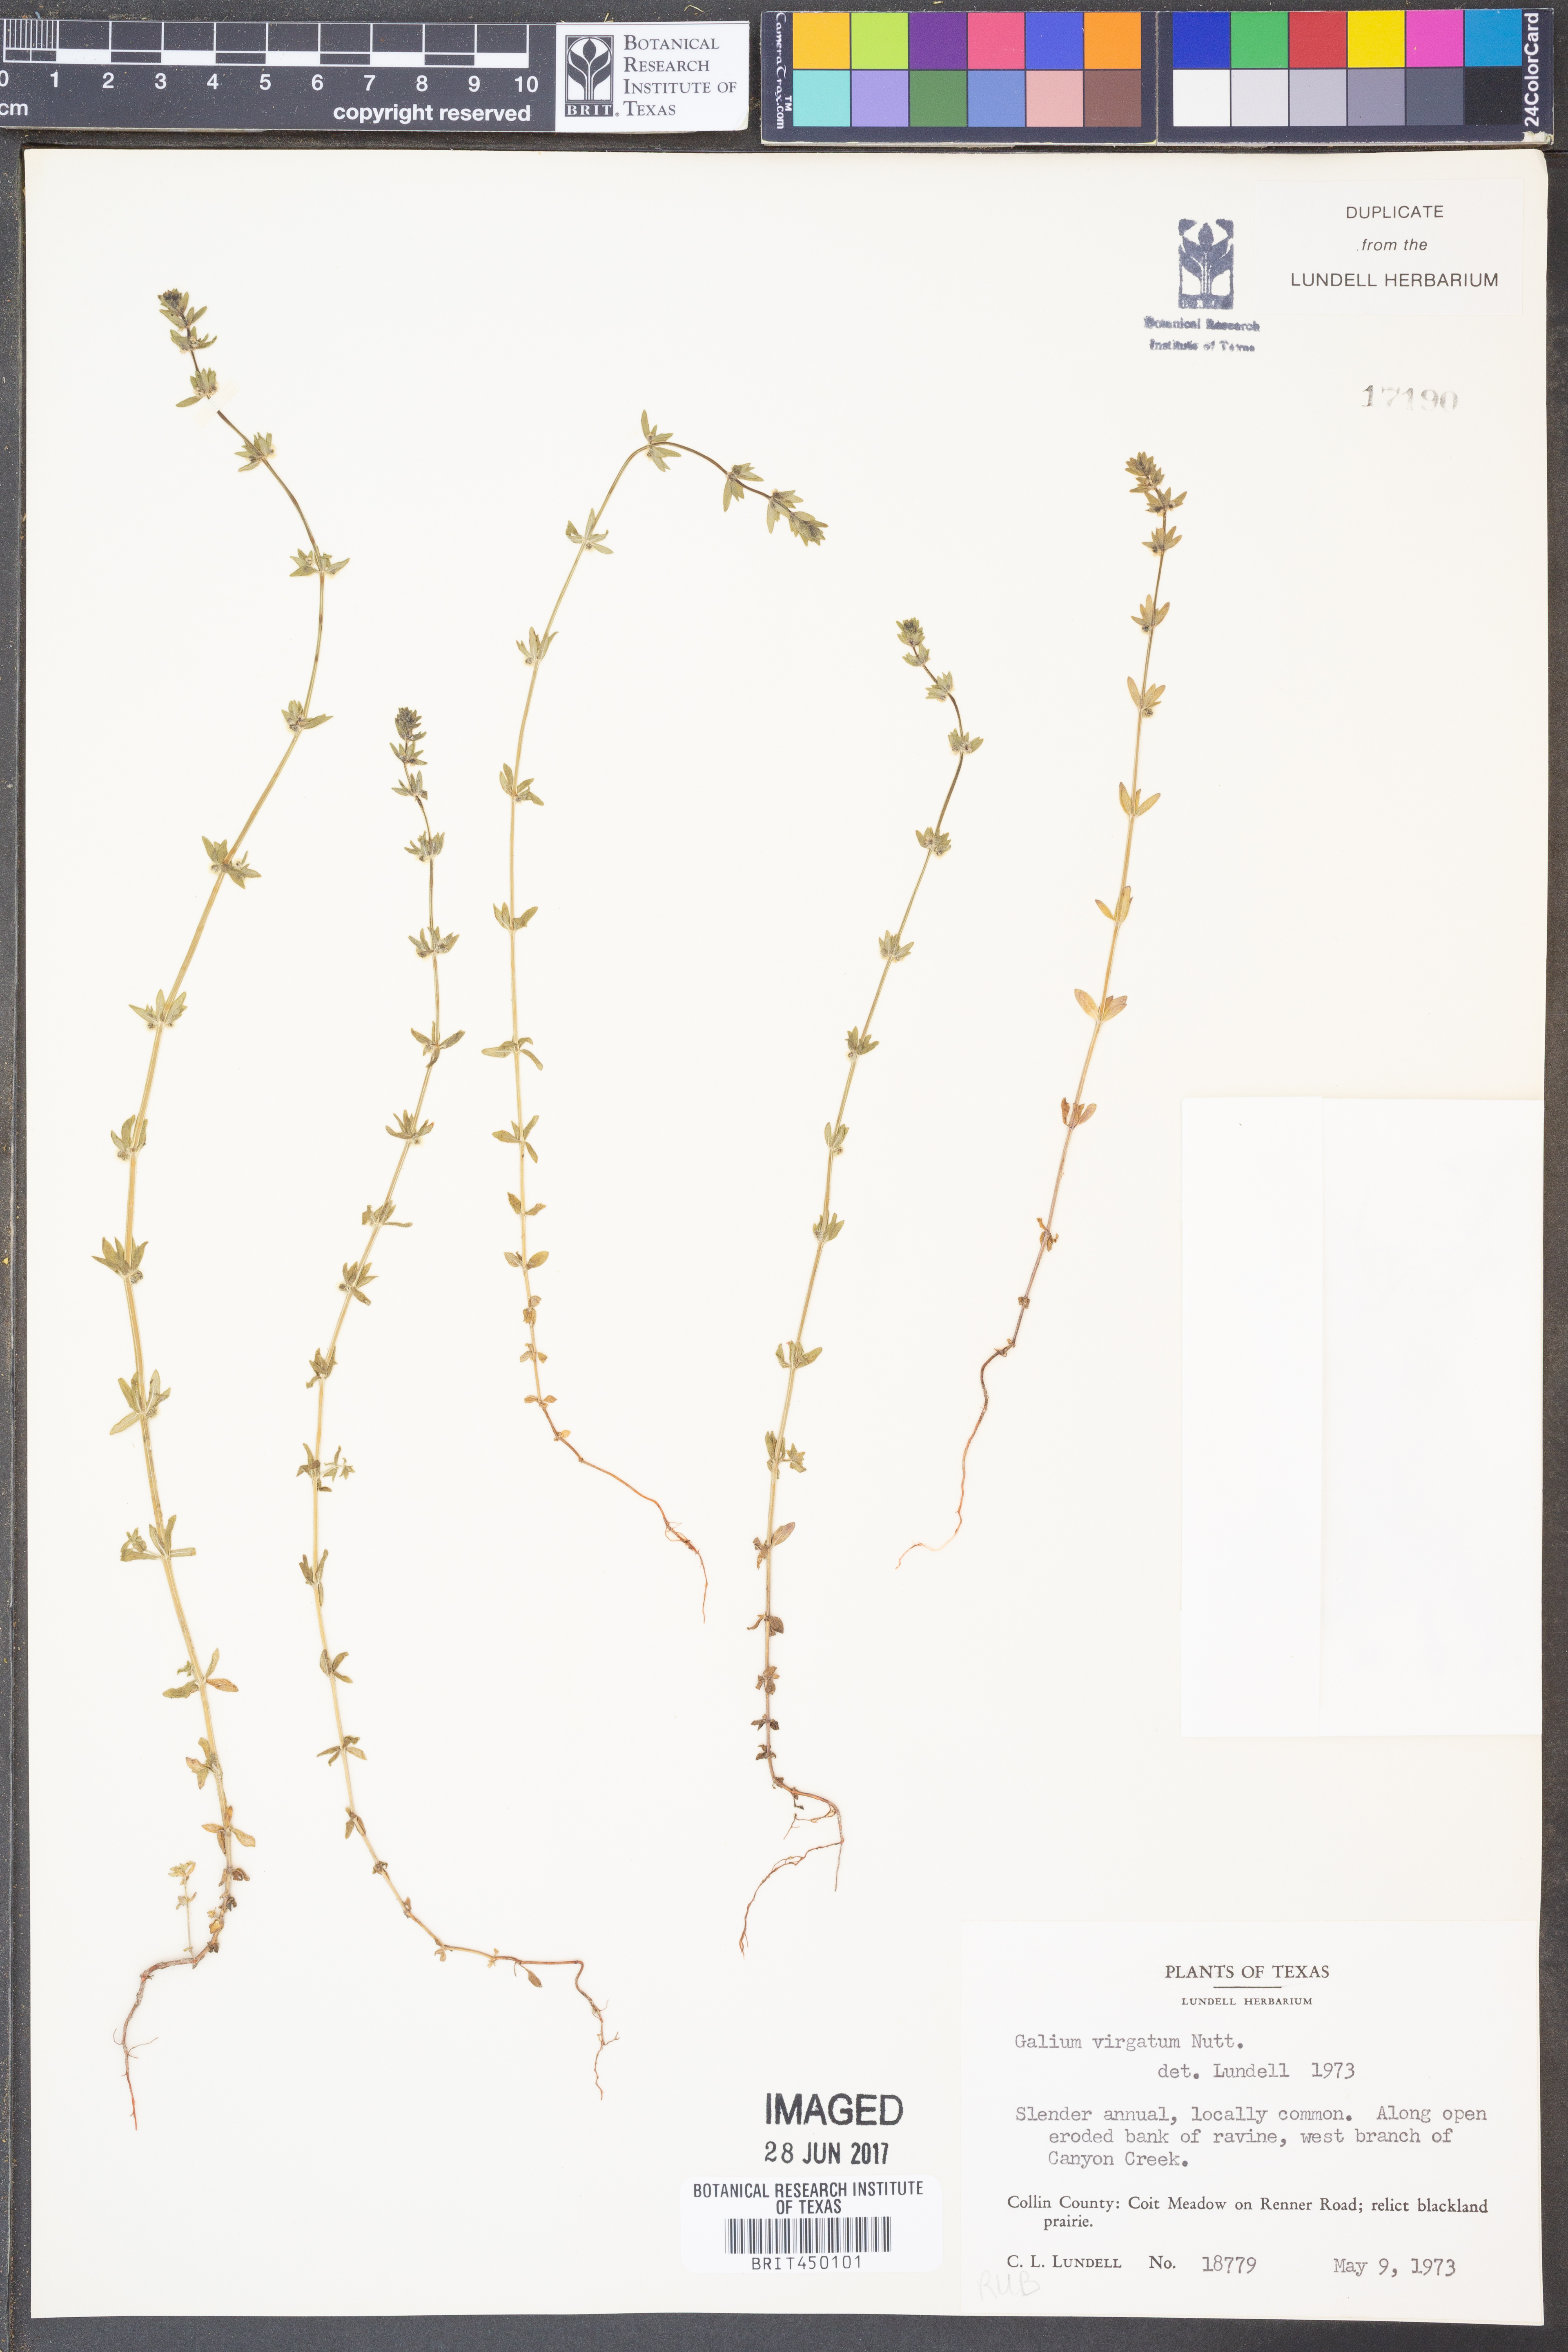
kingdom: Plantae
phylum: Tracheophyta
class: Magnoliopsida
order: Gentianales
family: Rubiaceae
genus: Galium
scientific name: Galium virgatum
